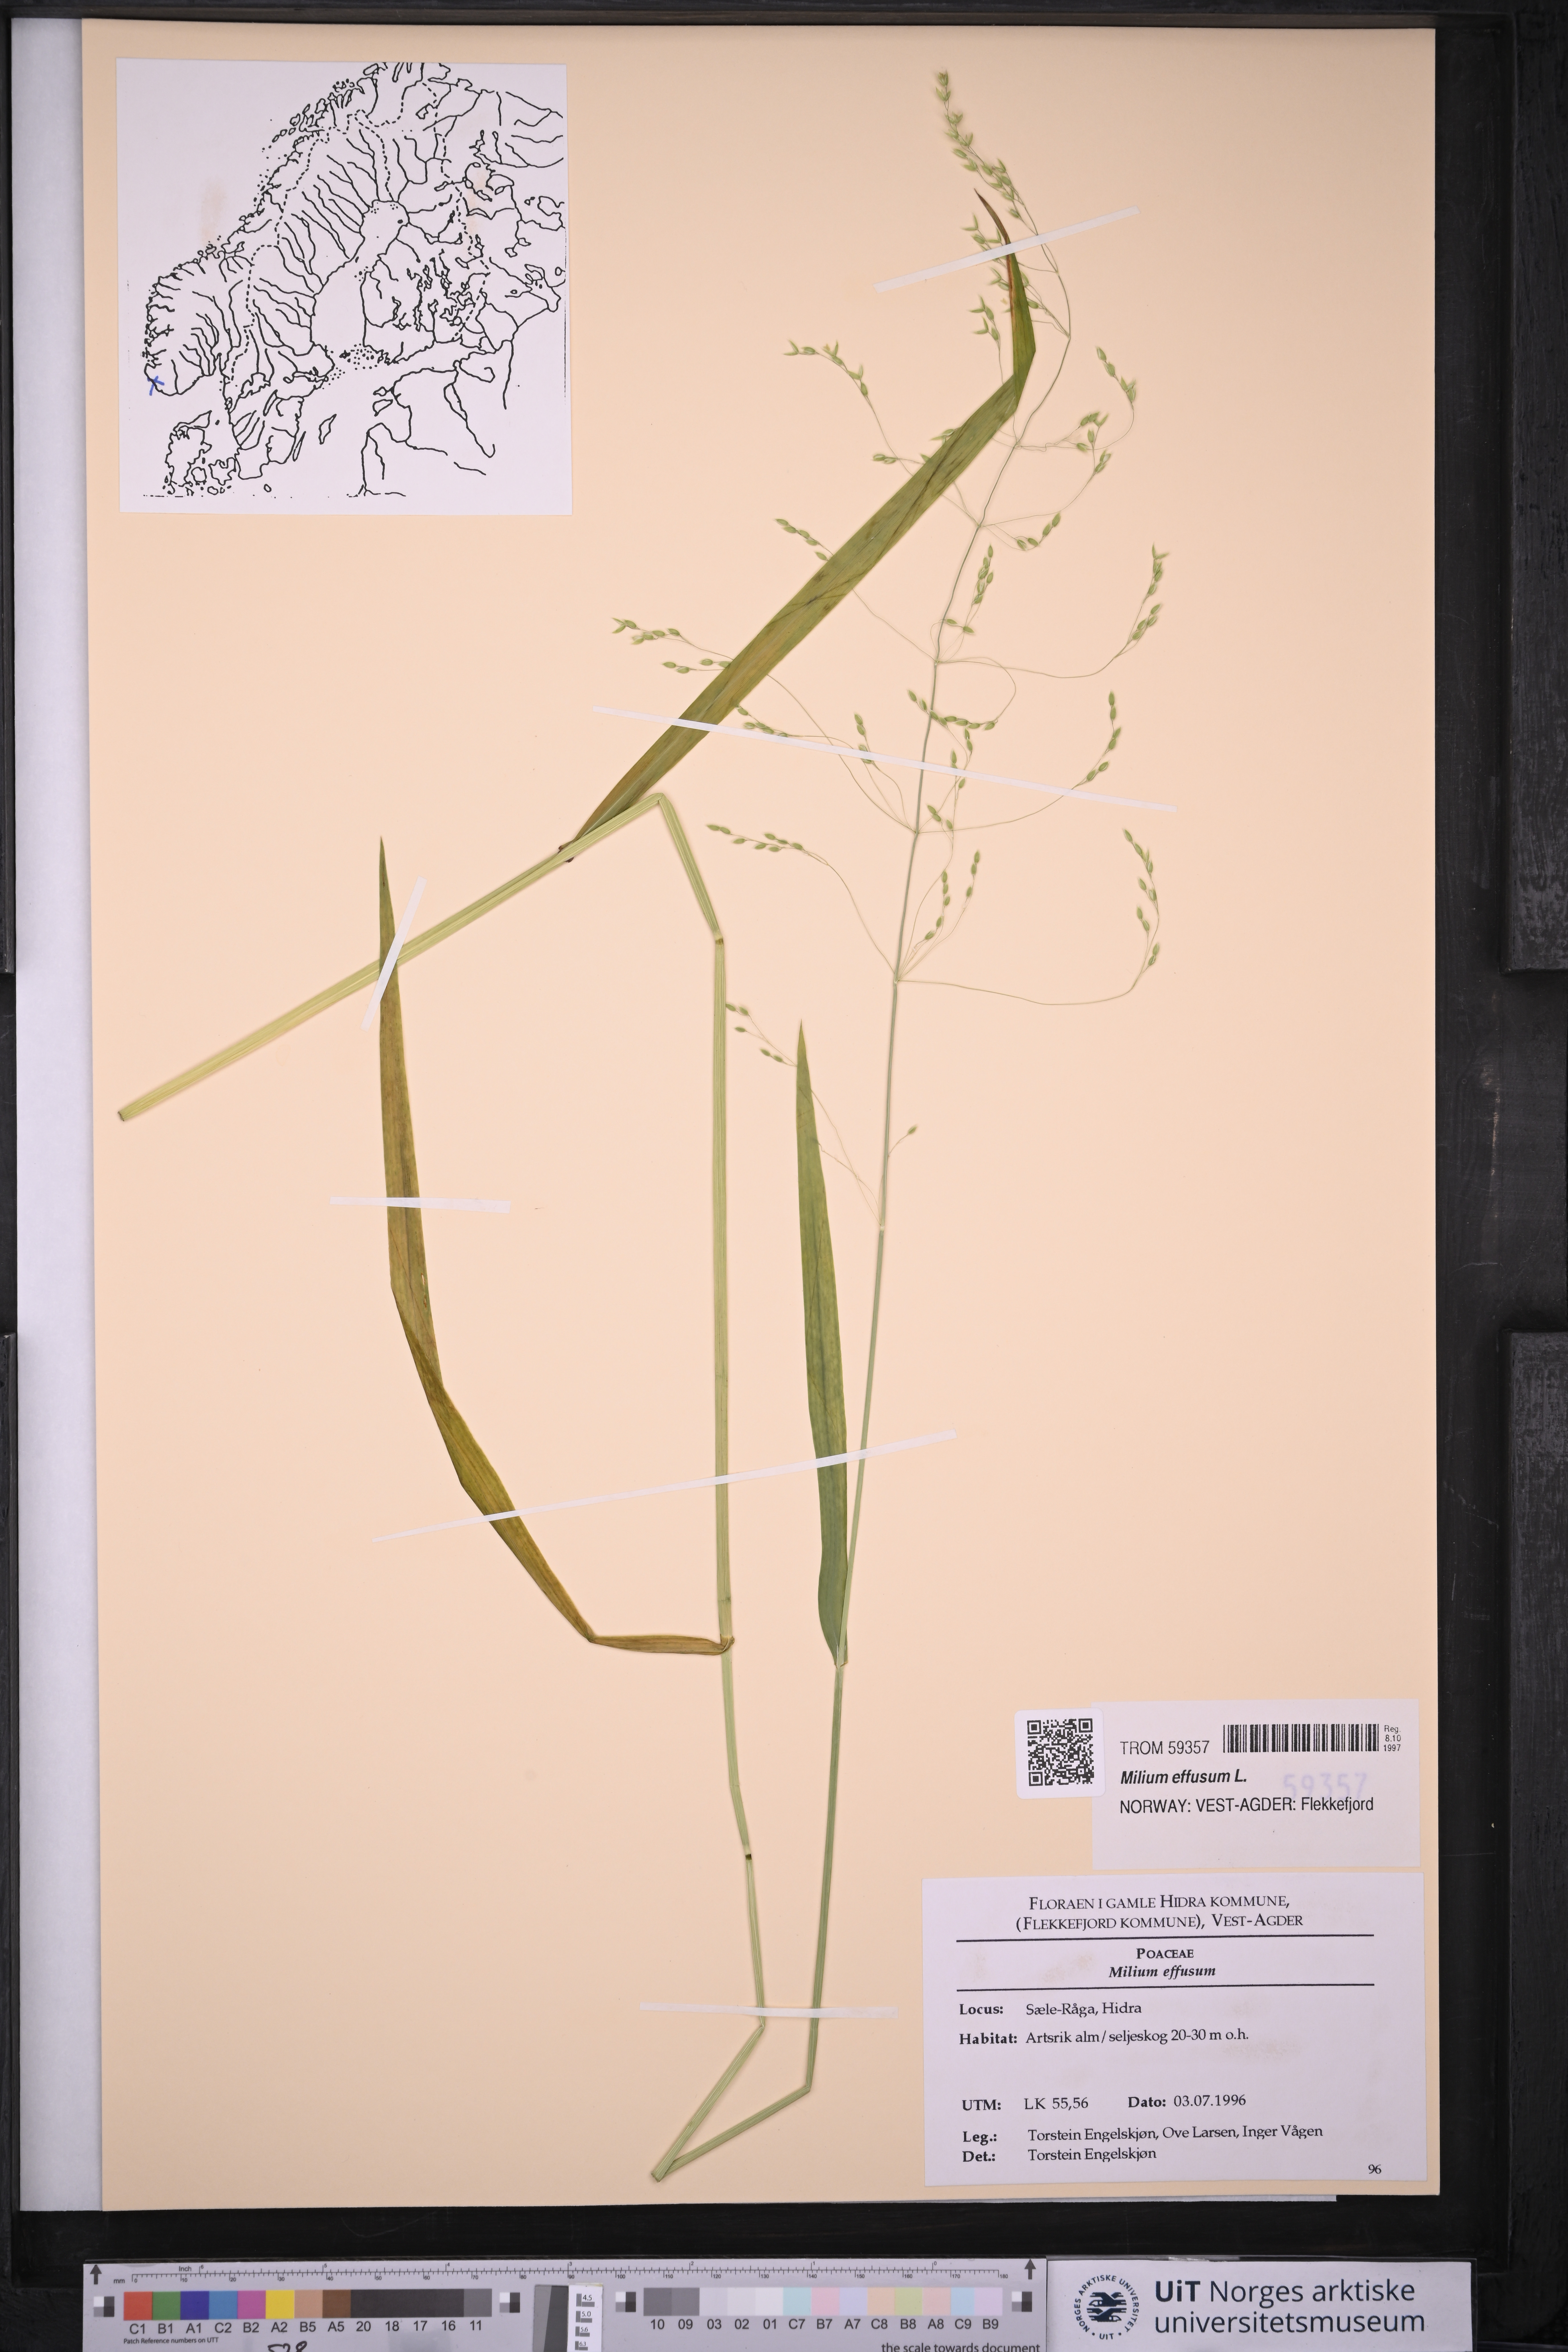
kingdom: Plantae
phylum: Tracheophyta
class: Liliopsida
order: Poales
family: Poaceae
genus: Milium
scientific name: Milium effusum
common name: Wood millet
